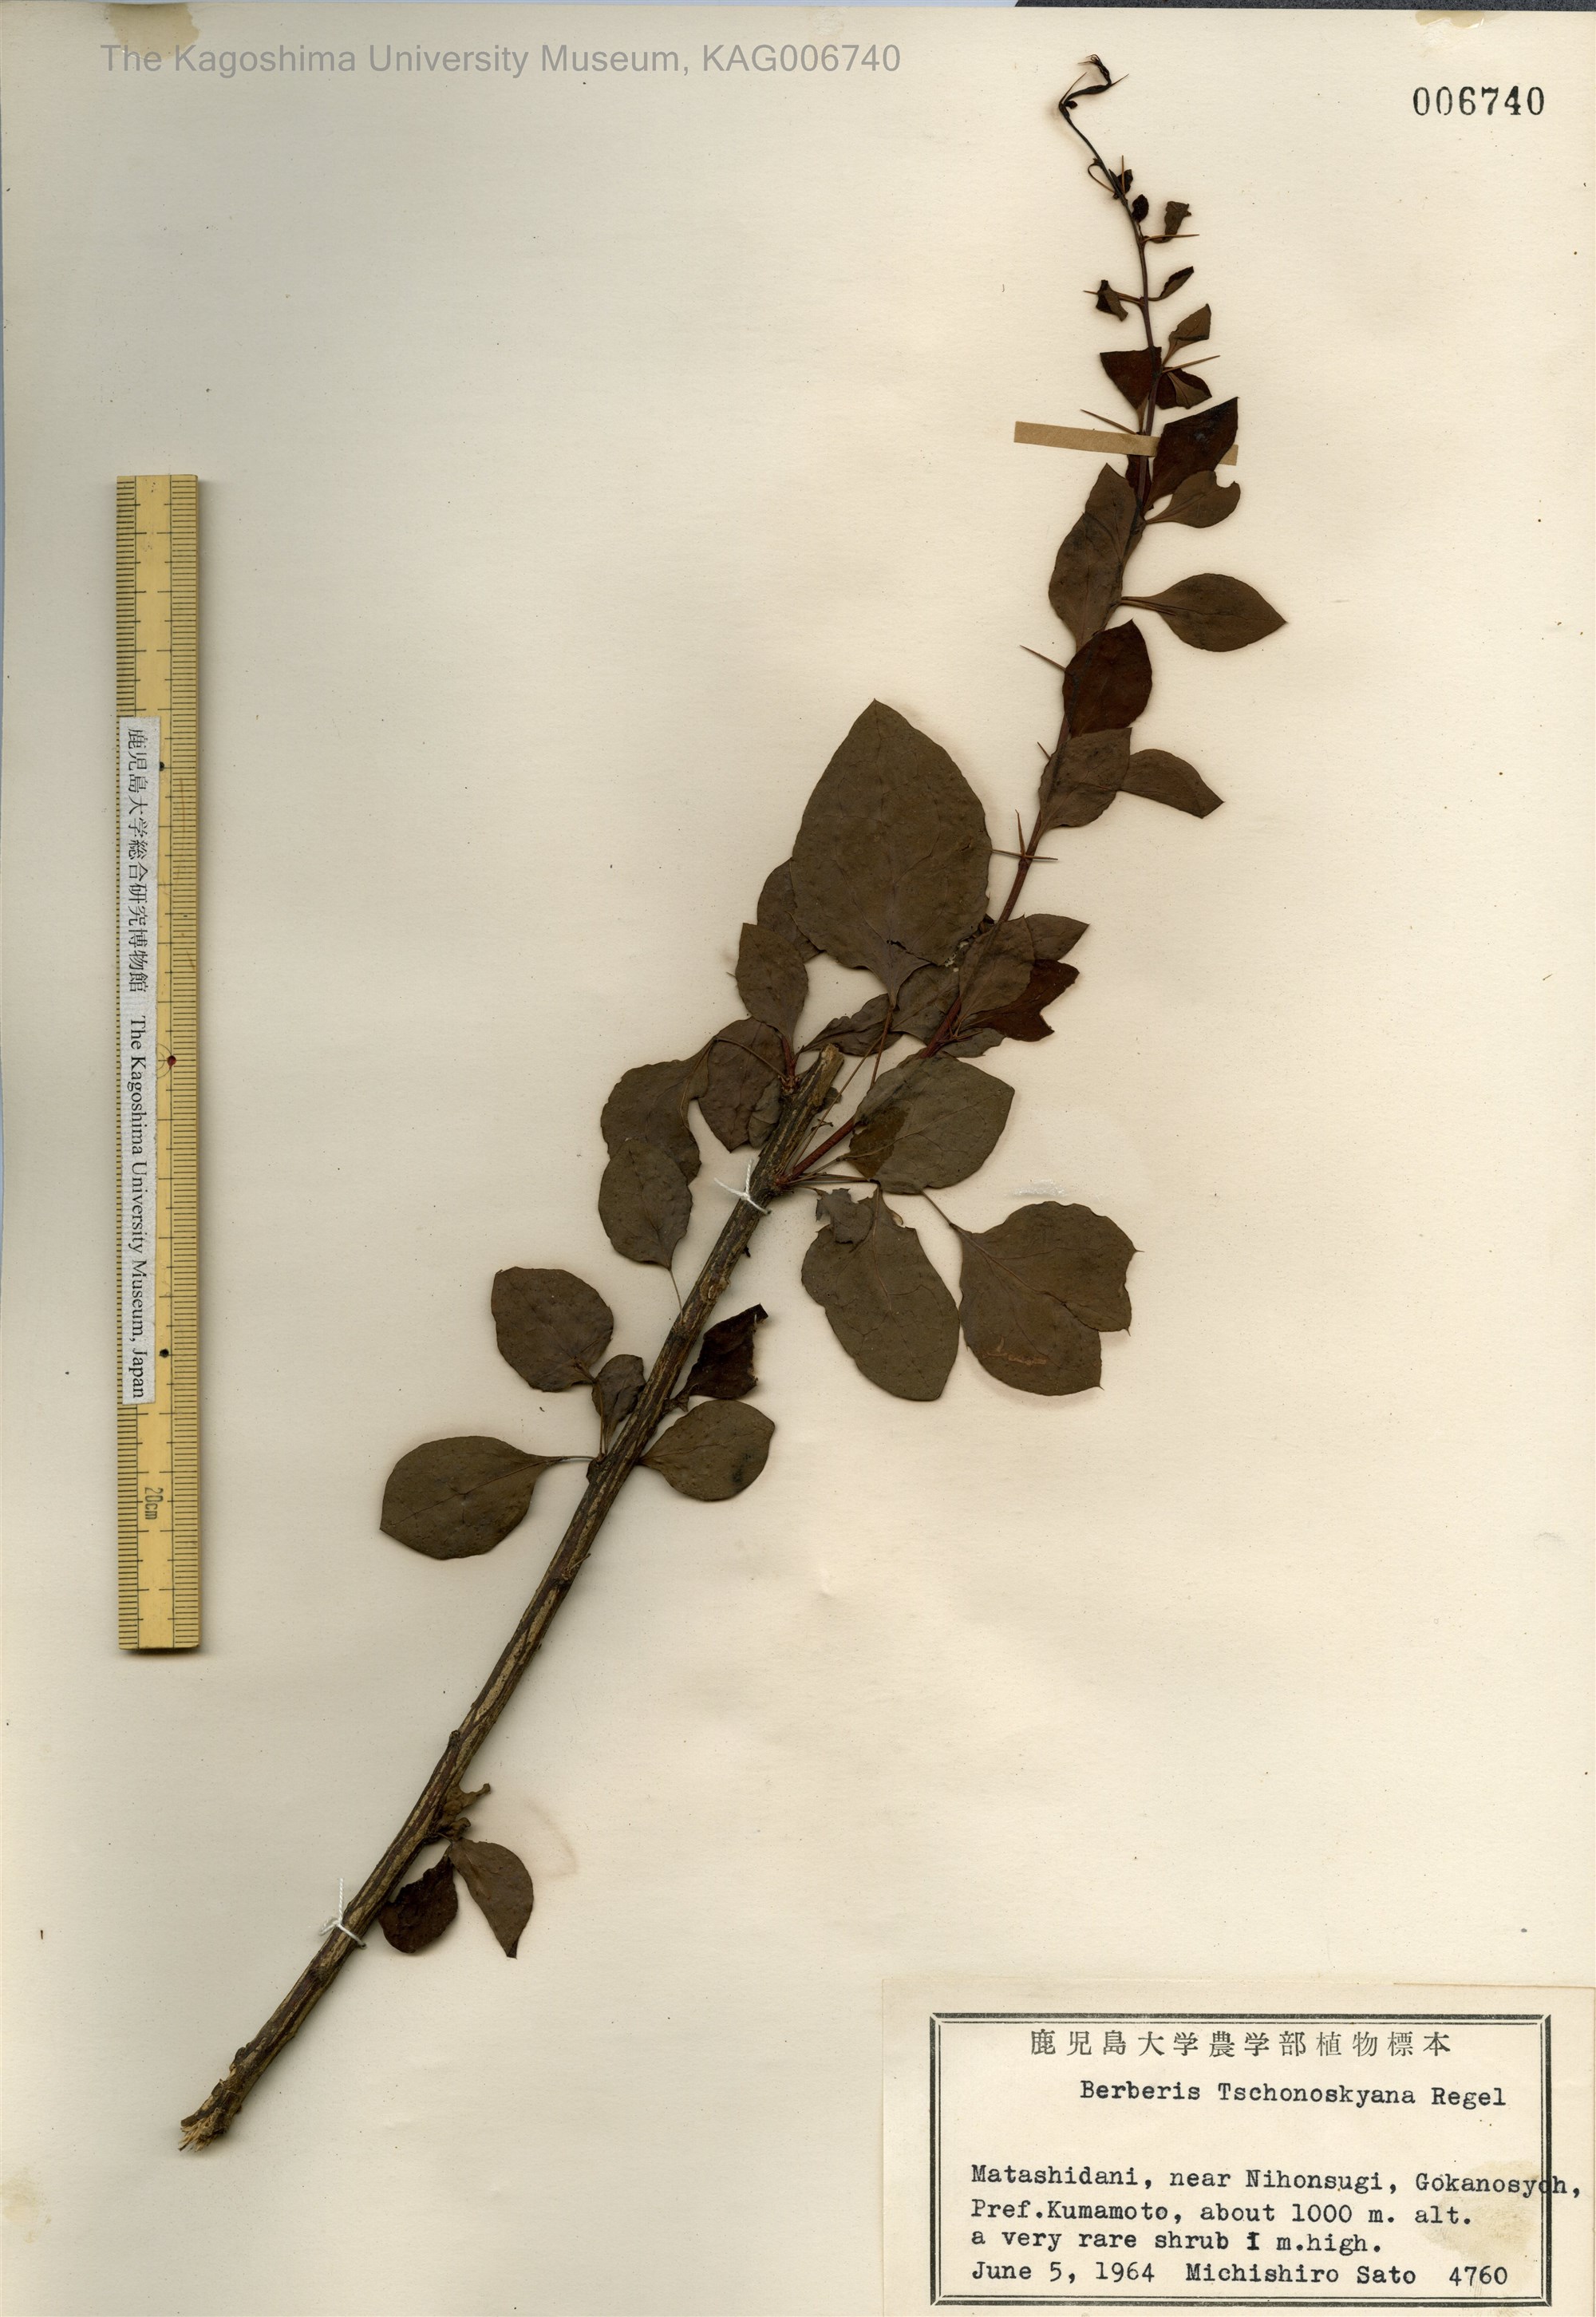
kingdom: Plantae
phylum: Tracheophyta
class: Magnoliopsida
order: Ranunculales
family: Berberidaceae
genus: Berberis
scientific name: Berberis tschonoskyana
